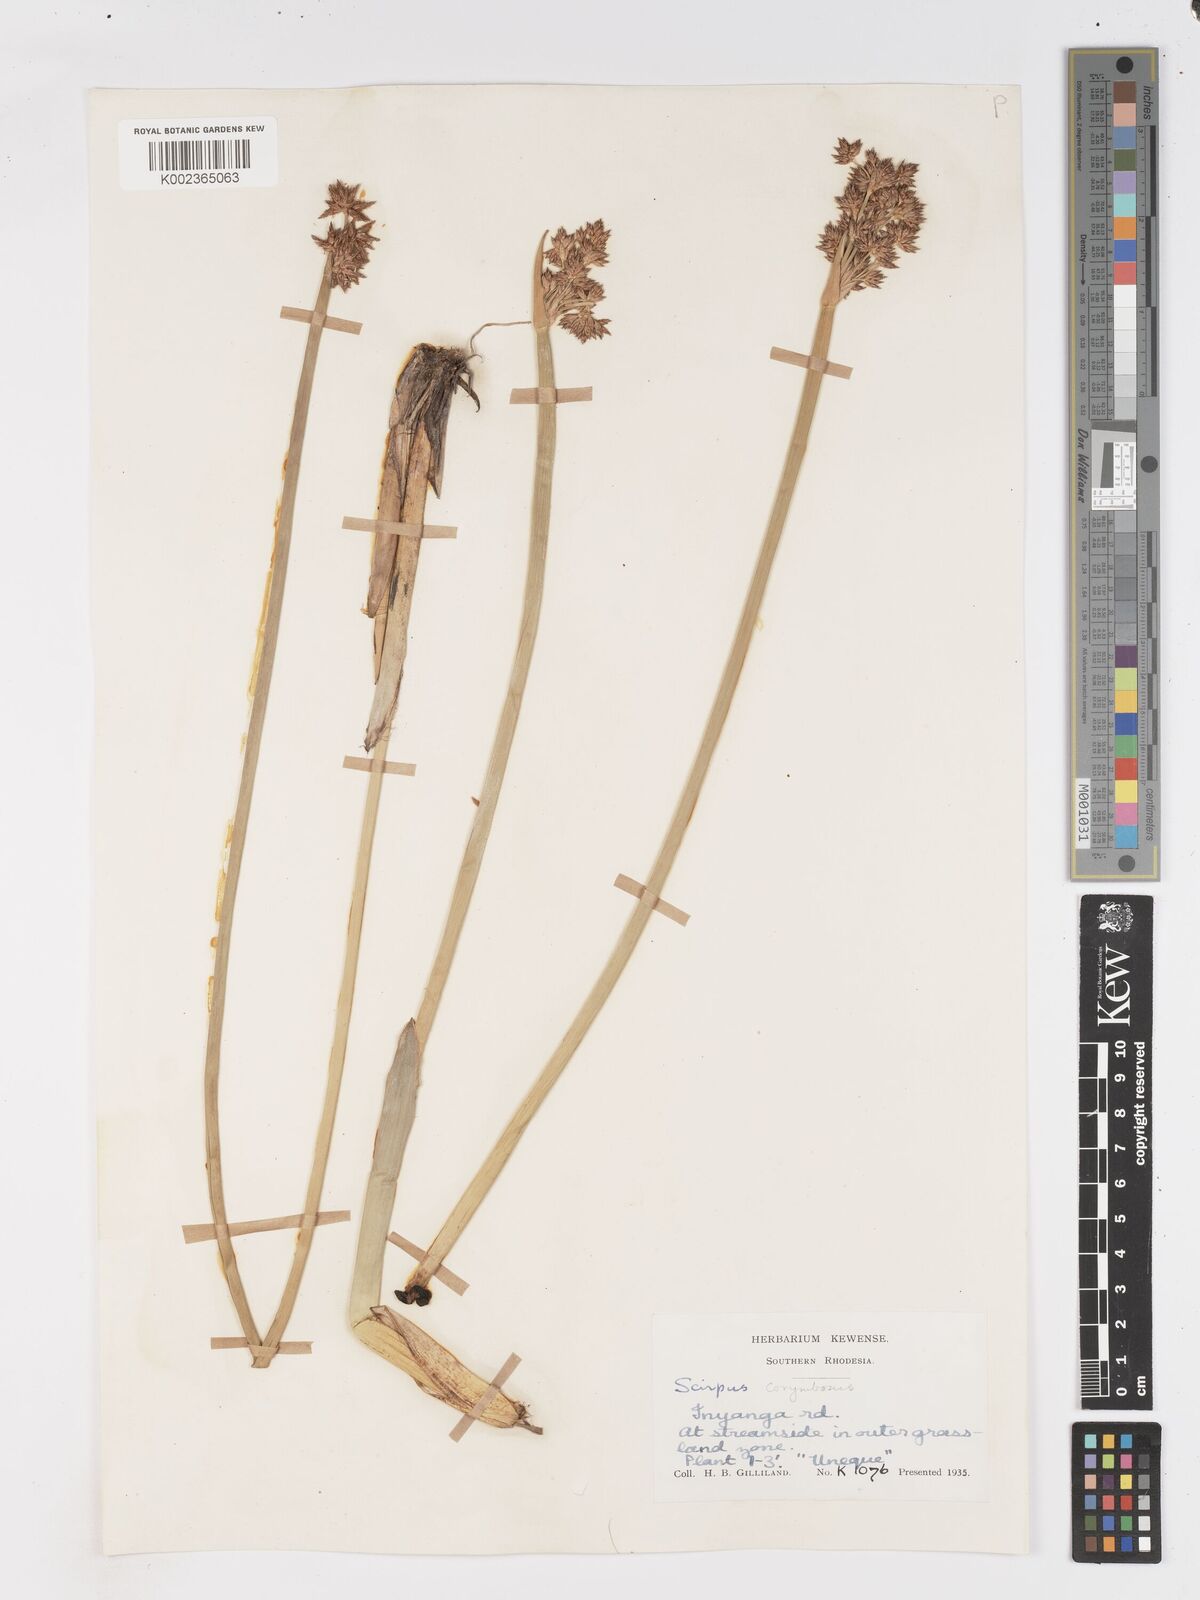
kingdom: Plantae
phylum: Tracheophyta
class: Liliopsida
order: Poales
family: Cyperaceae
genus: Schoenoplectiella
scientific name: Schoenoplectiella brachyceras
